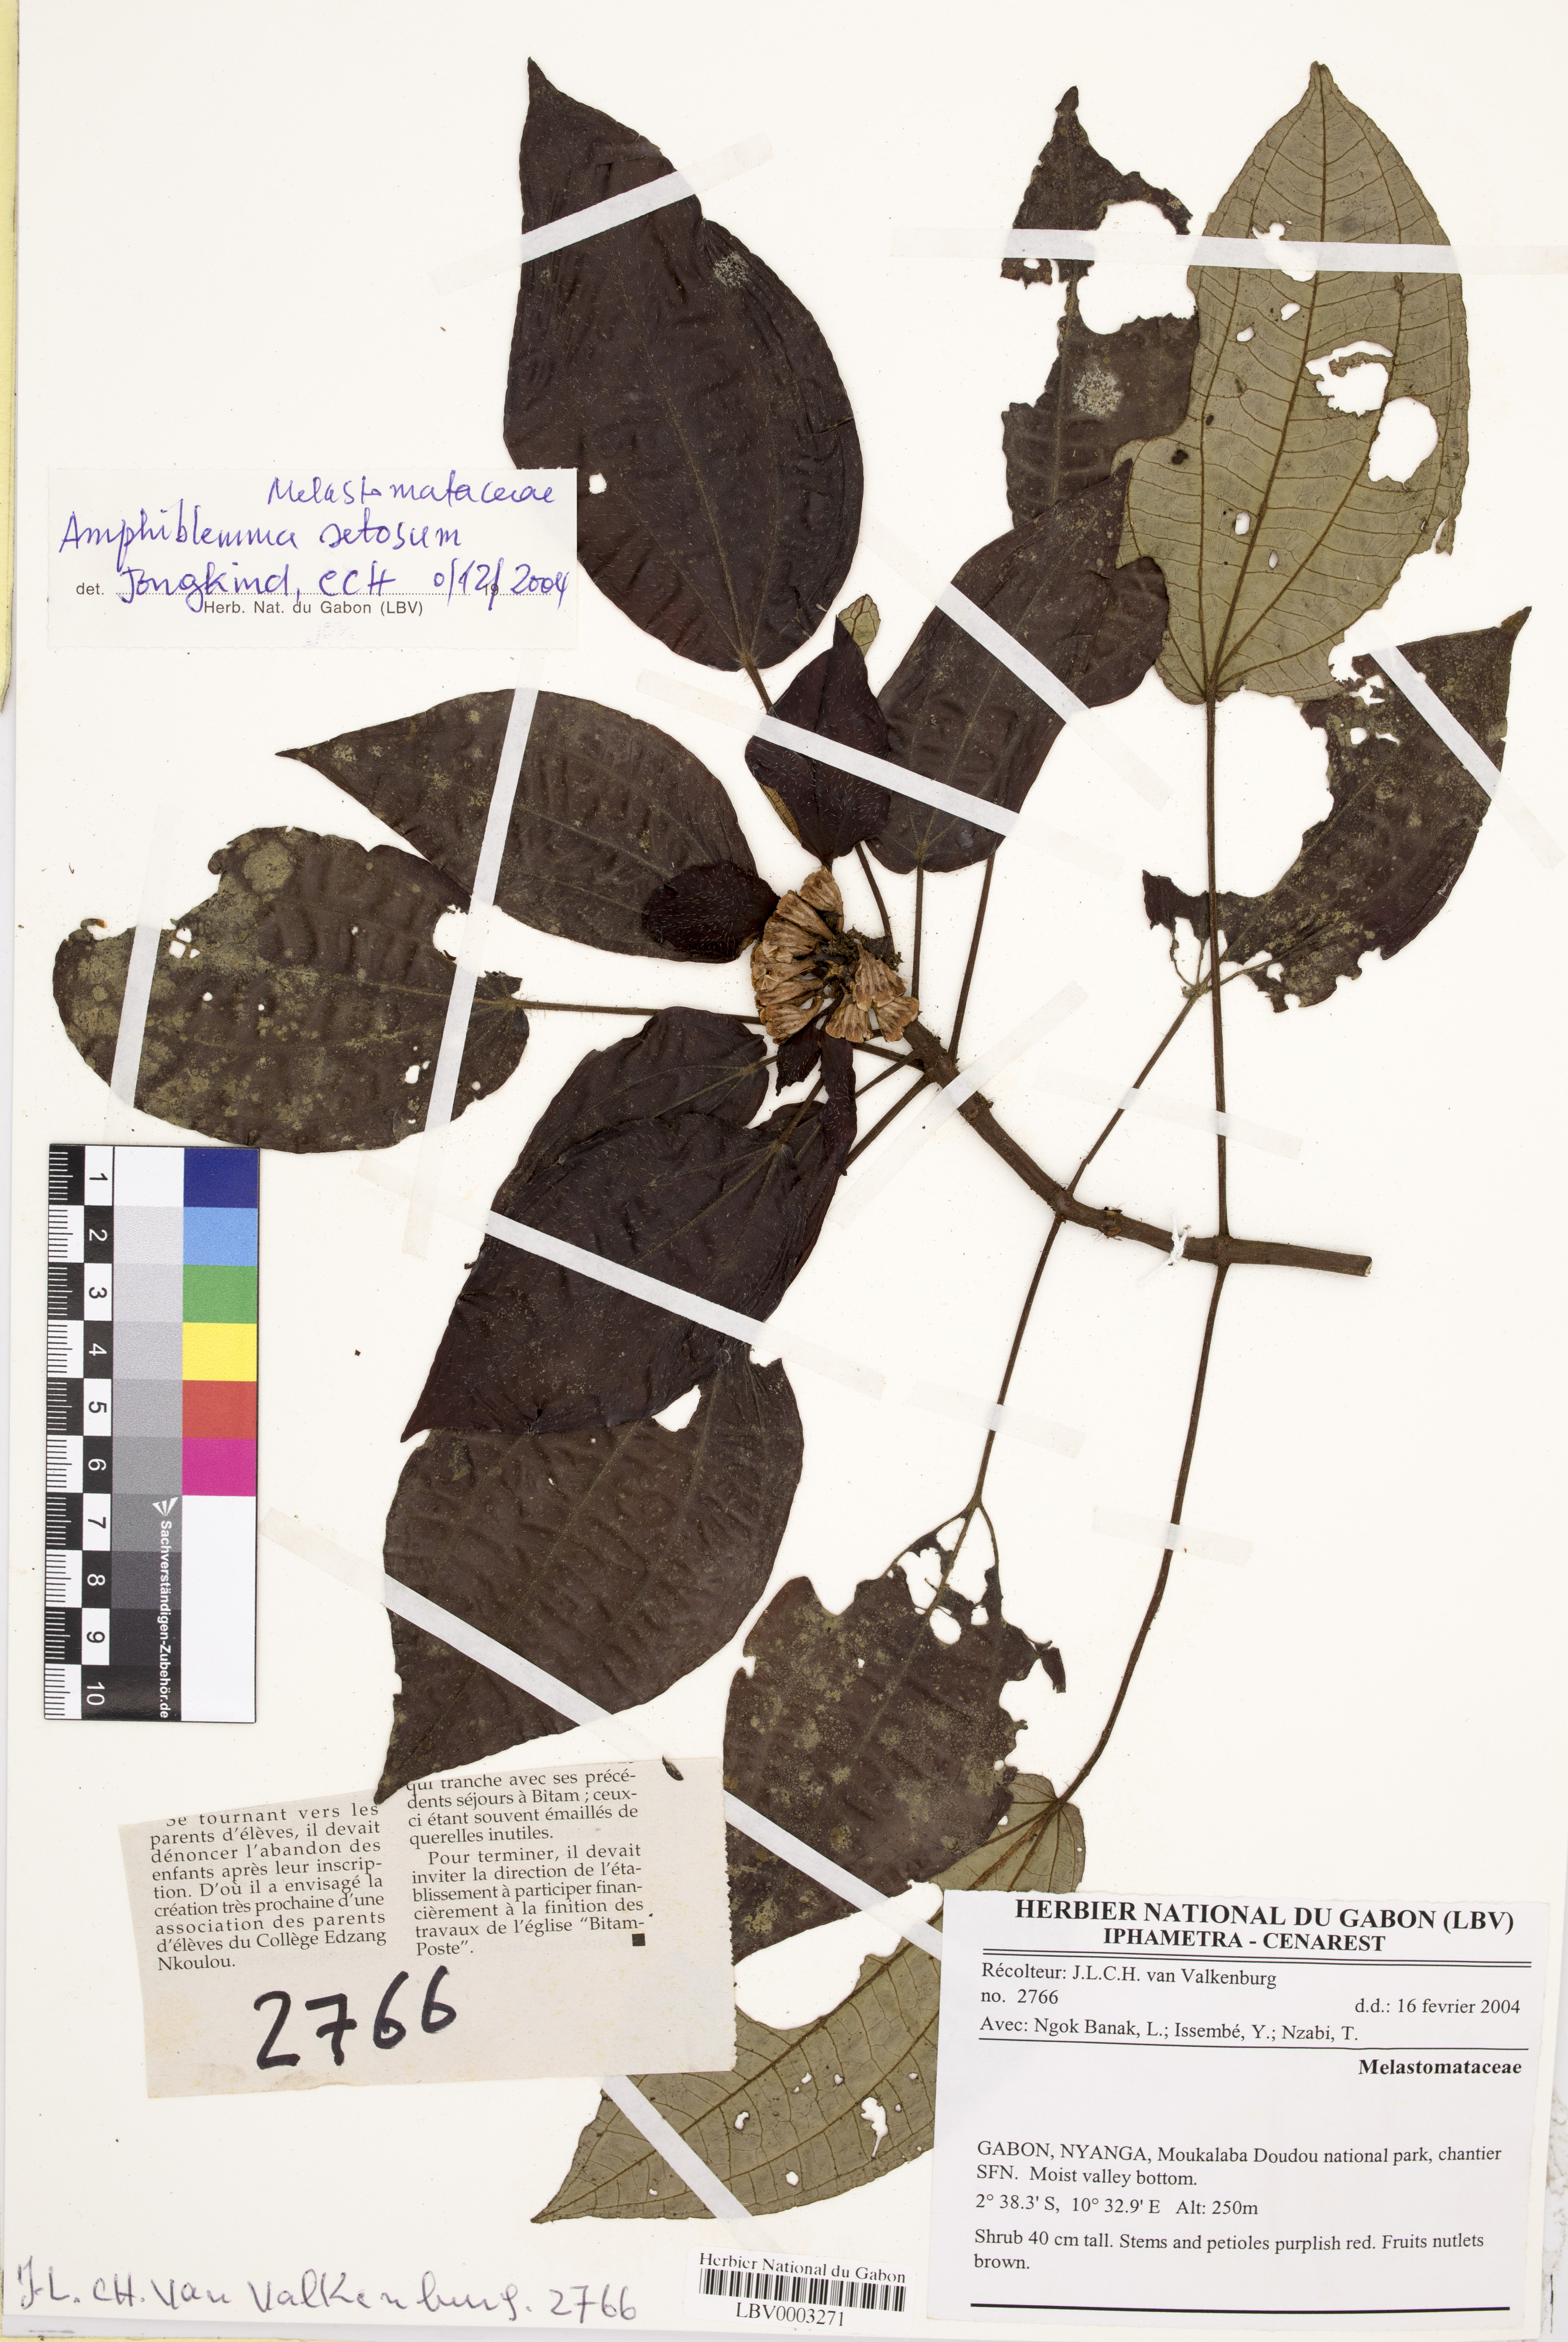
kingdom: Plantae
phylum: Tracheophyta
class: Magnoliopsida
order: Myrtales
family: Melastomataceae
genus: Amphiblemma
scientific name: Amphiblemma setosum
